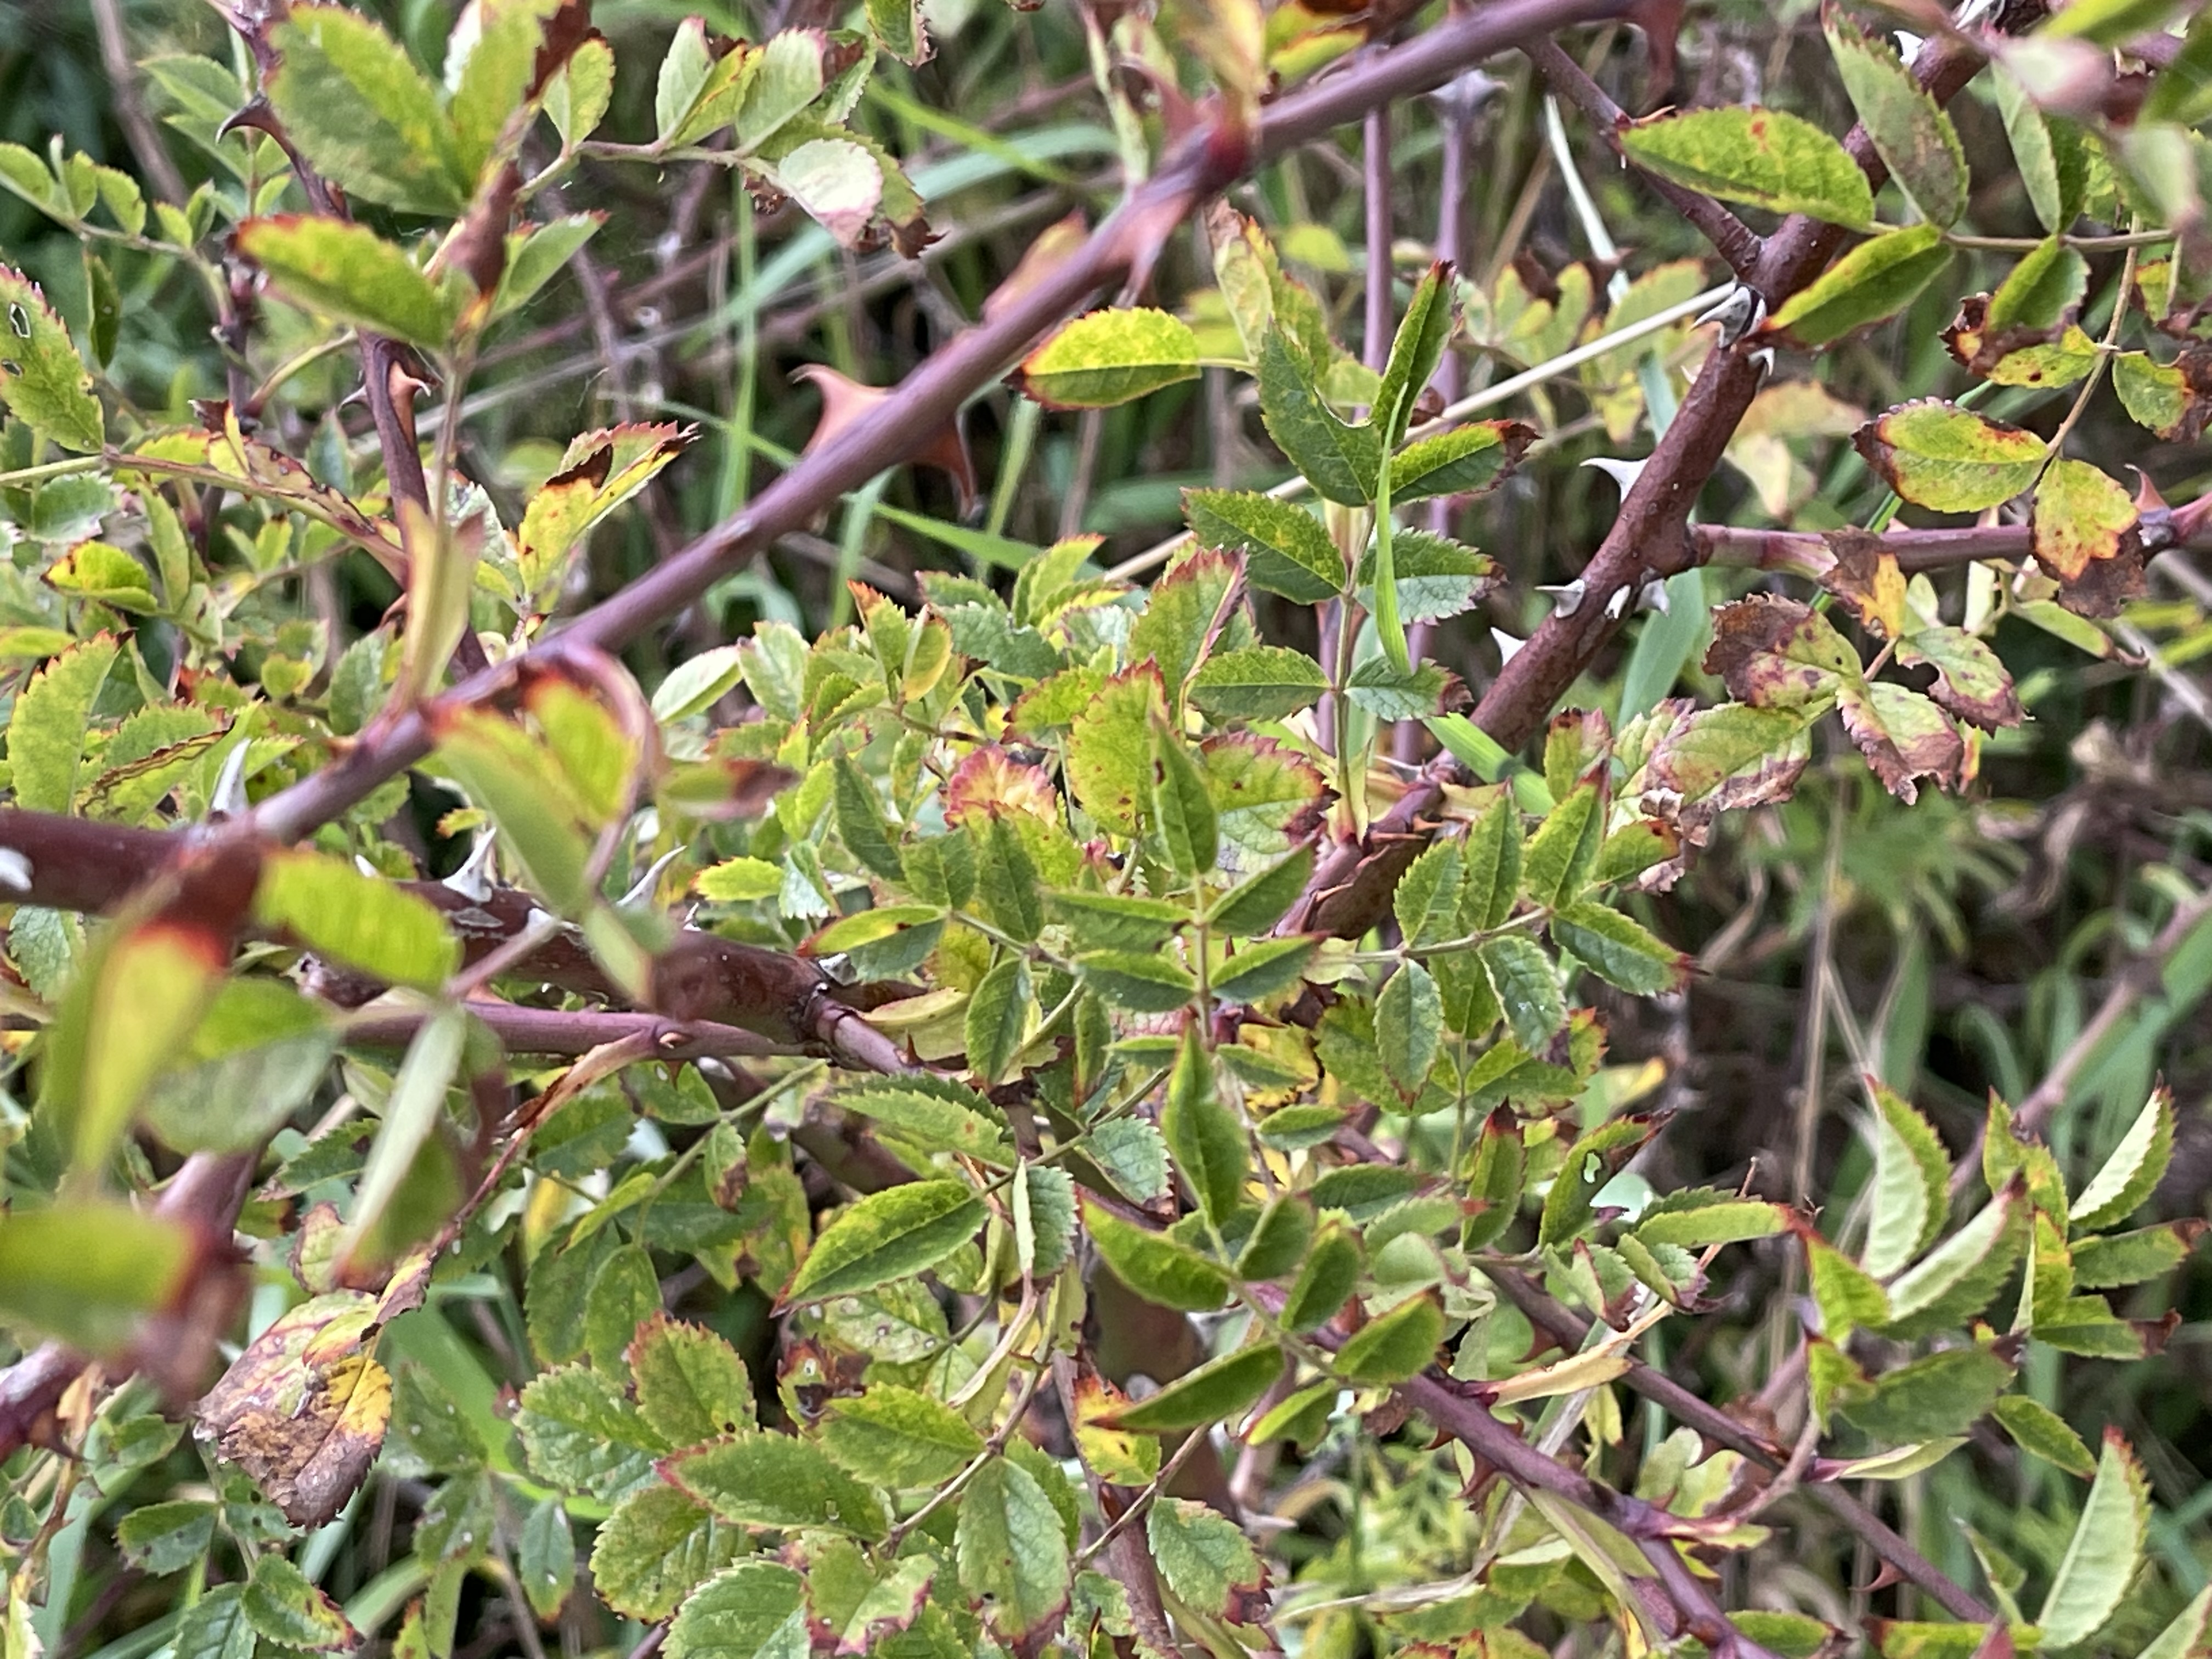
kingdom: Plantae
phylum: Tracheophyta
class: Magnoliopsida
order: Rosales
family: Rosaceae
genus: Rosa
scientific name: Rosa
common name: Roseslægten
